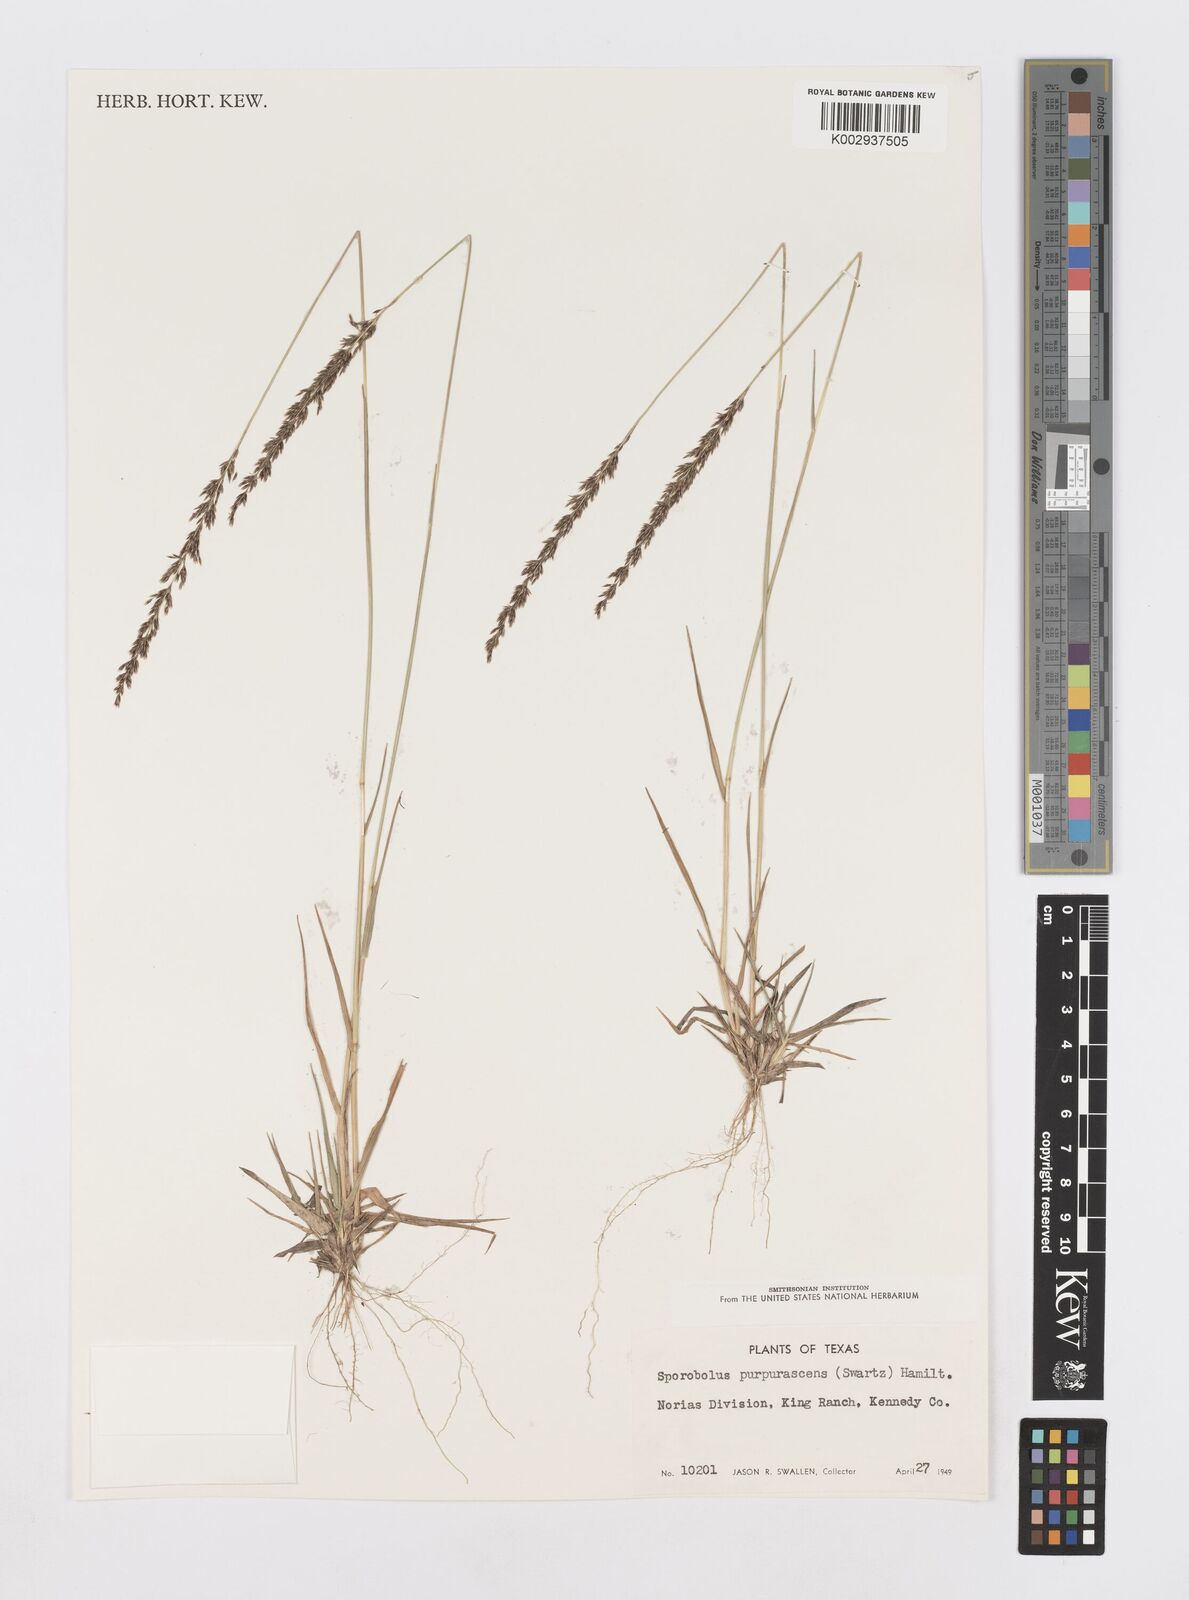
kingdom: Plantae
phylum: Tracheophyta
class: Liliopsida
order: Poales
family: Poaceae
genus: Sporobolus
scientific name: Sporobolus purpurascens
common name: Purple dropseed
